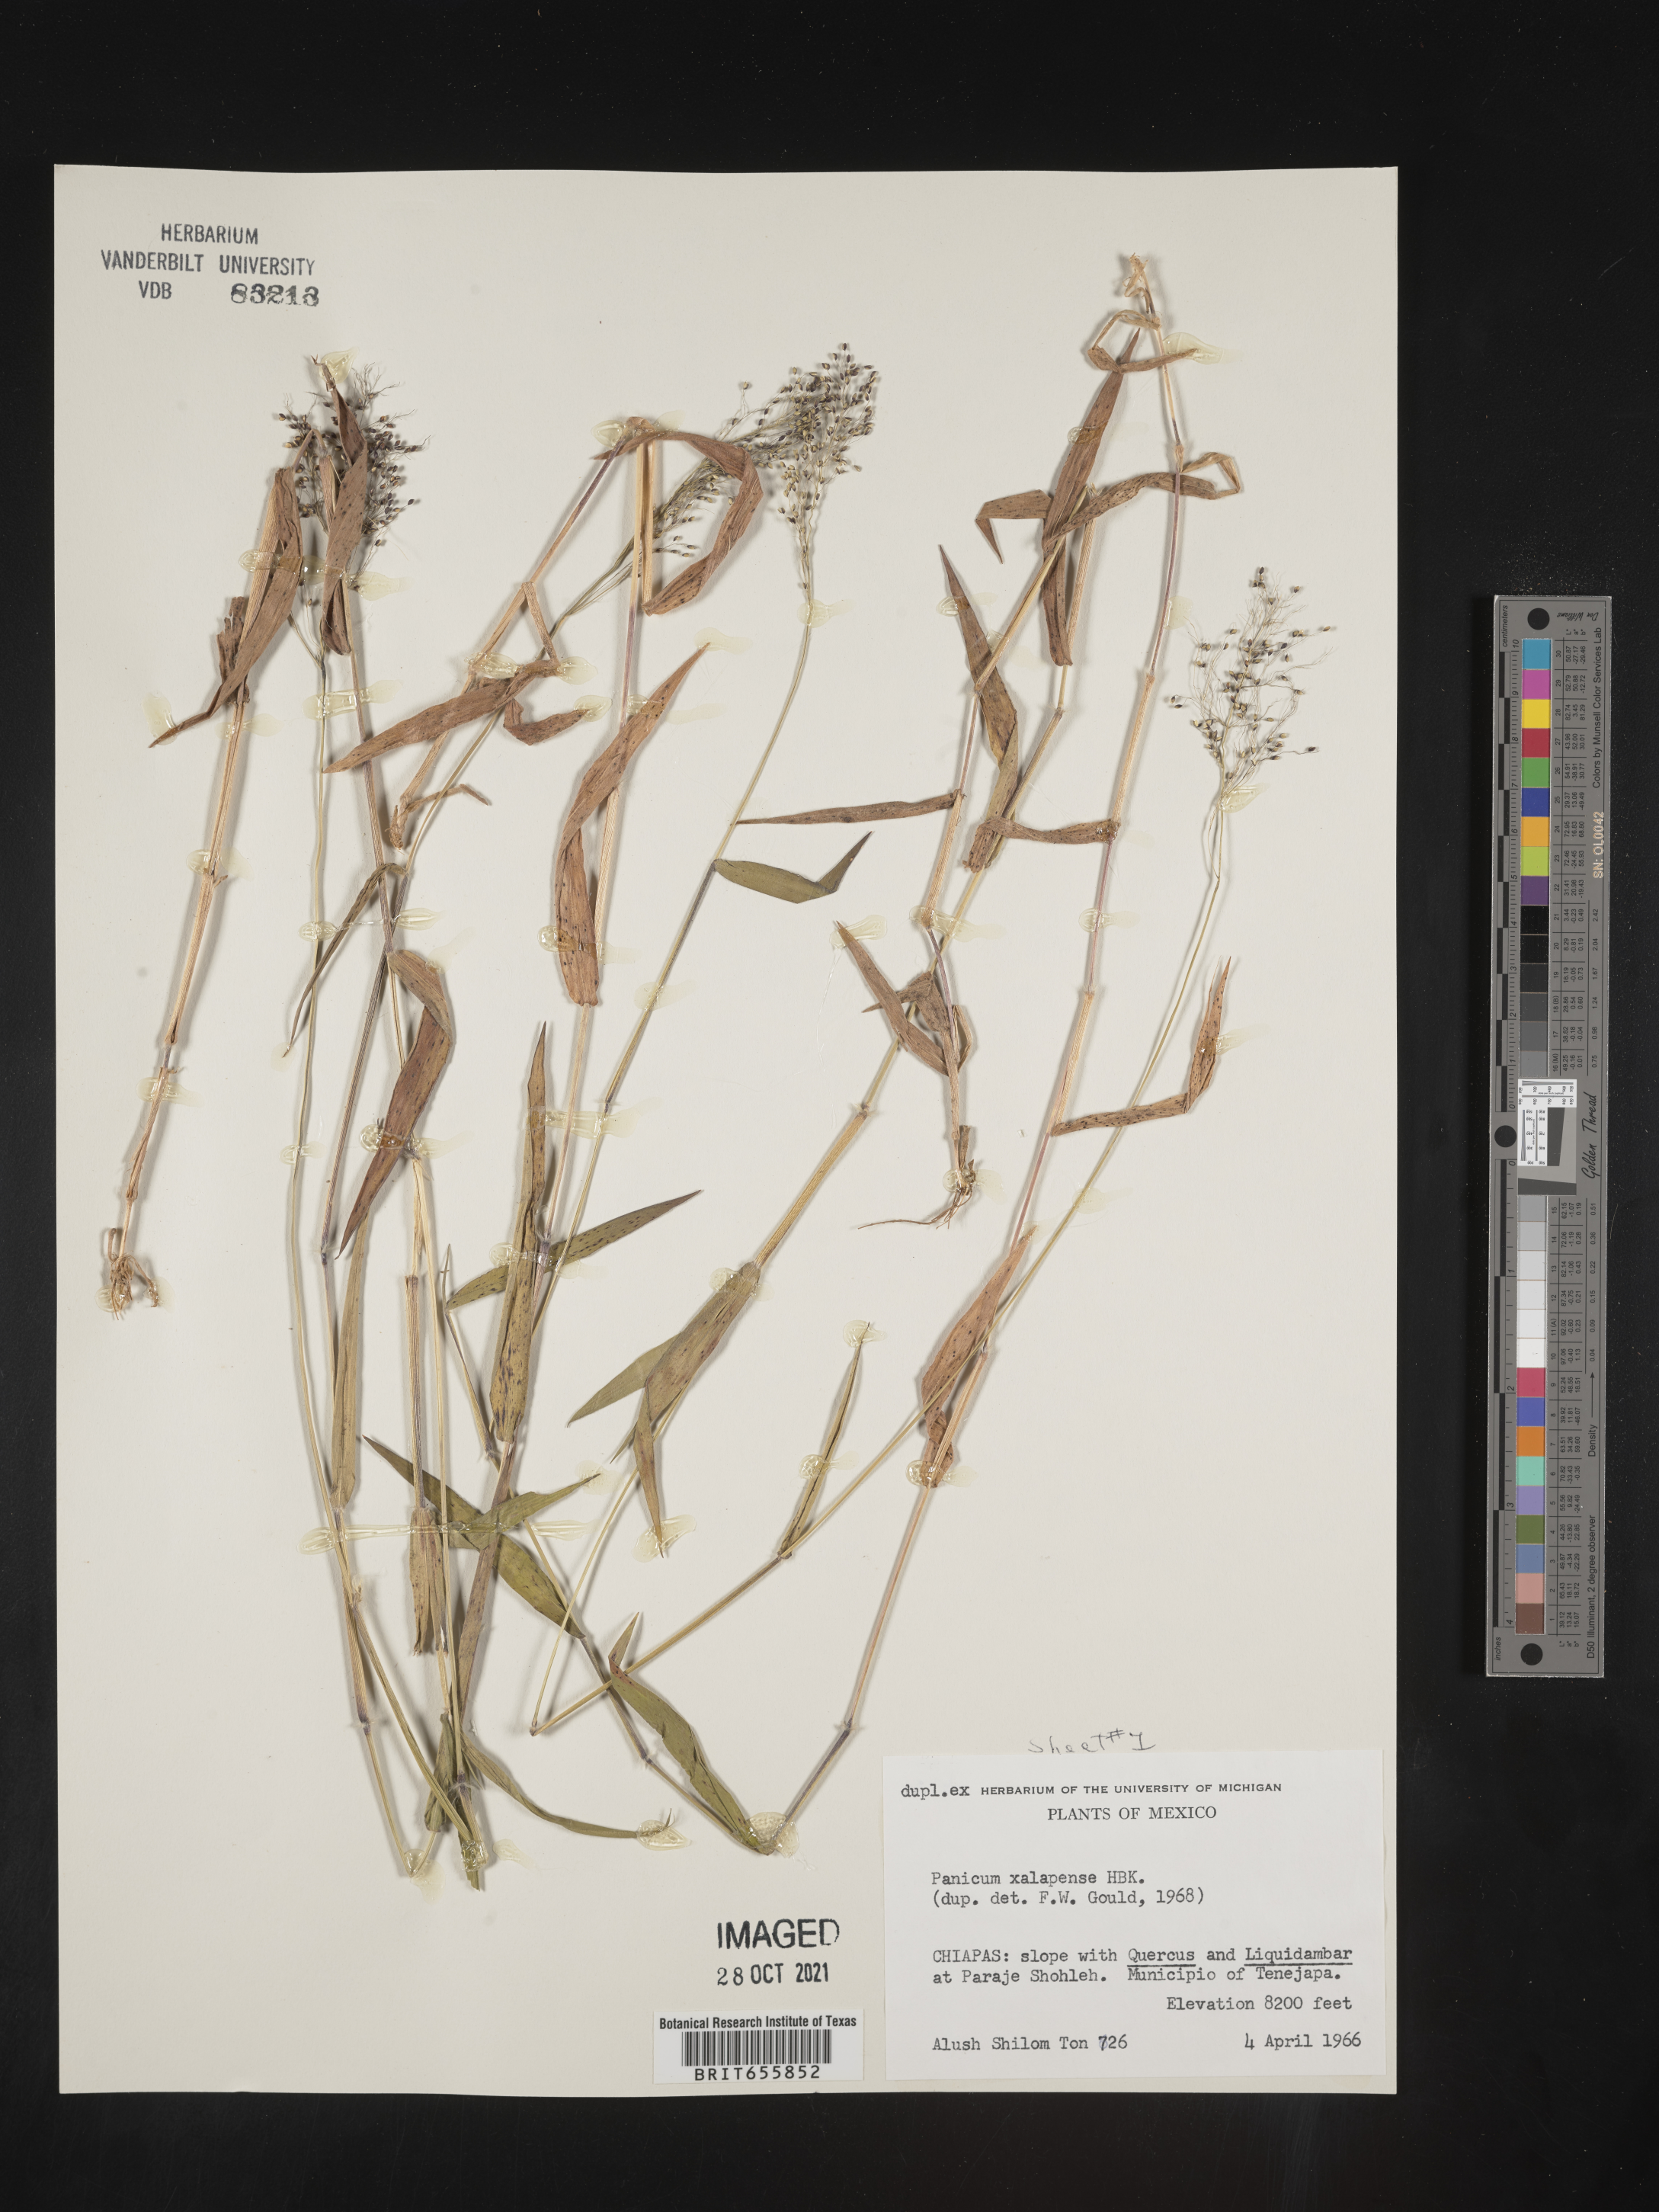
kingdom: Plantae
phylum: Tracheophyta
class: Liliopsida
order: Poales
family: Poaceae
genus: Panicum
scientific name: Panicum
